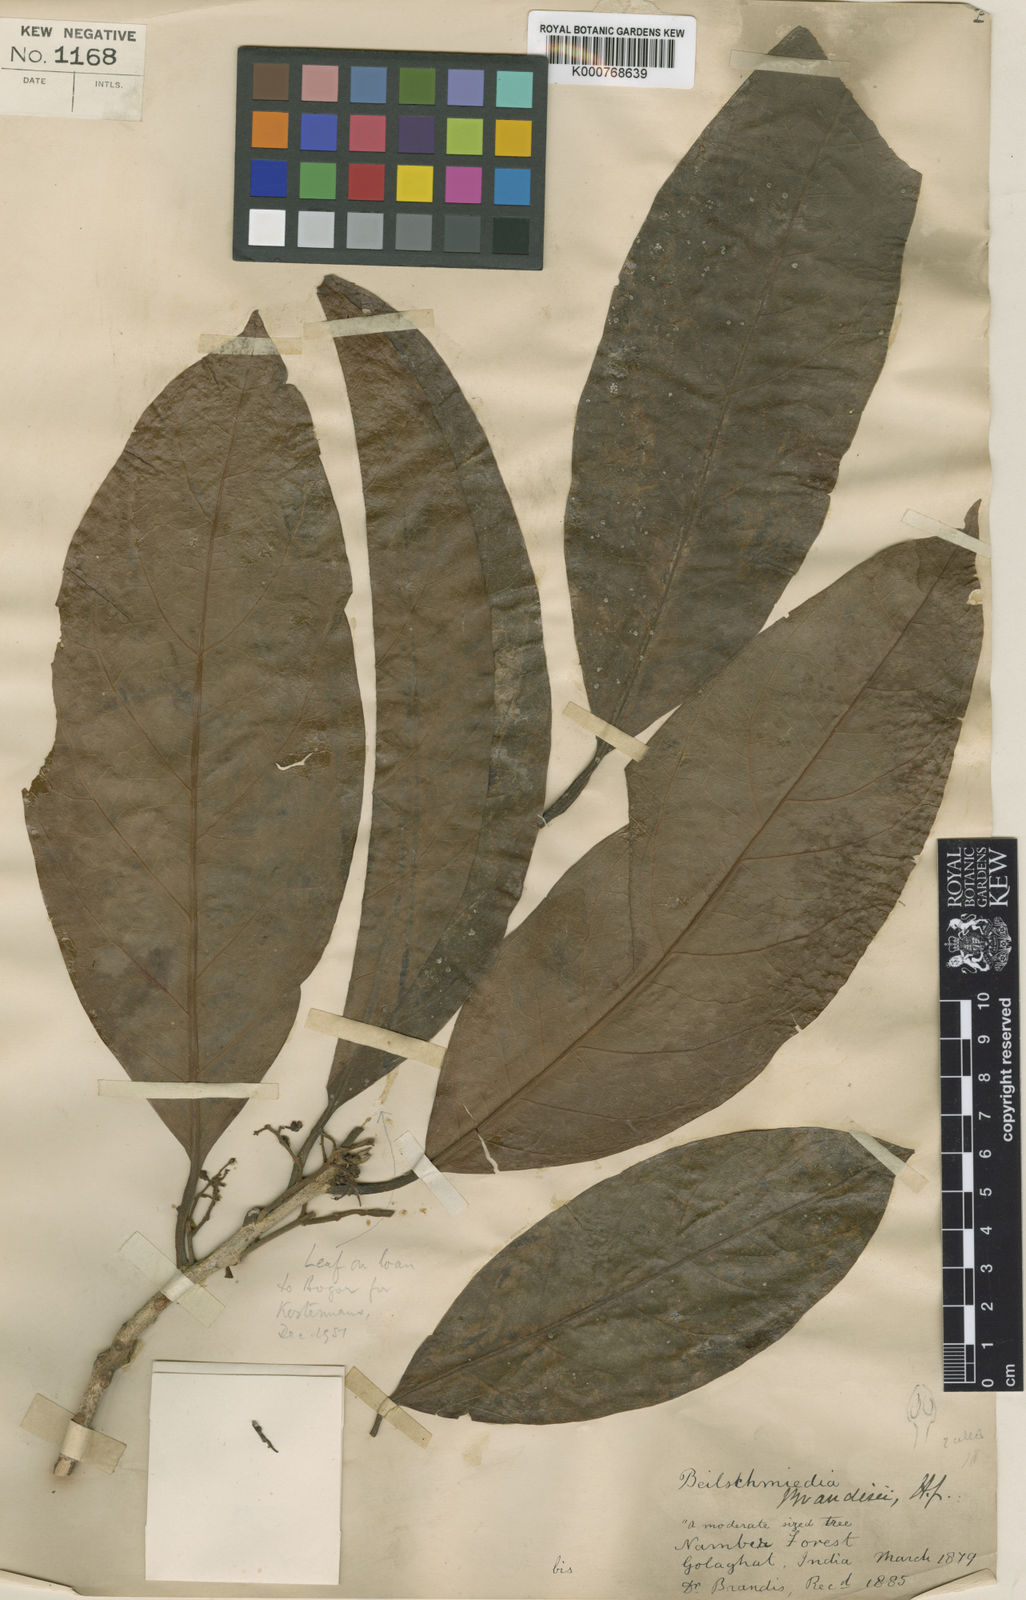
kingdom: Plantae
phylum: Tracheophyta
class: Magnoliopsida
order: Laurales
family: Lauraceae
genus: Beilschmiedia
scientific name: Beilschmiedia brandisii
